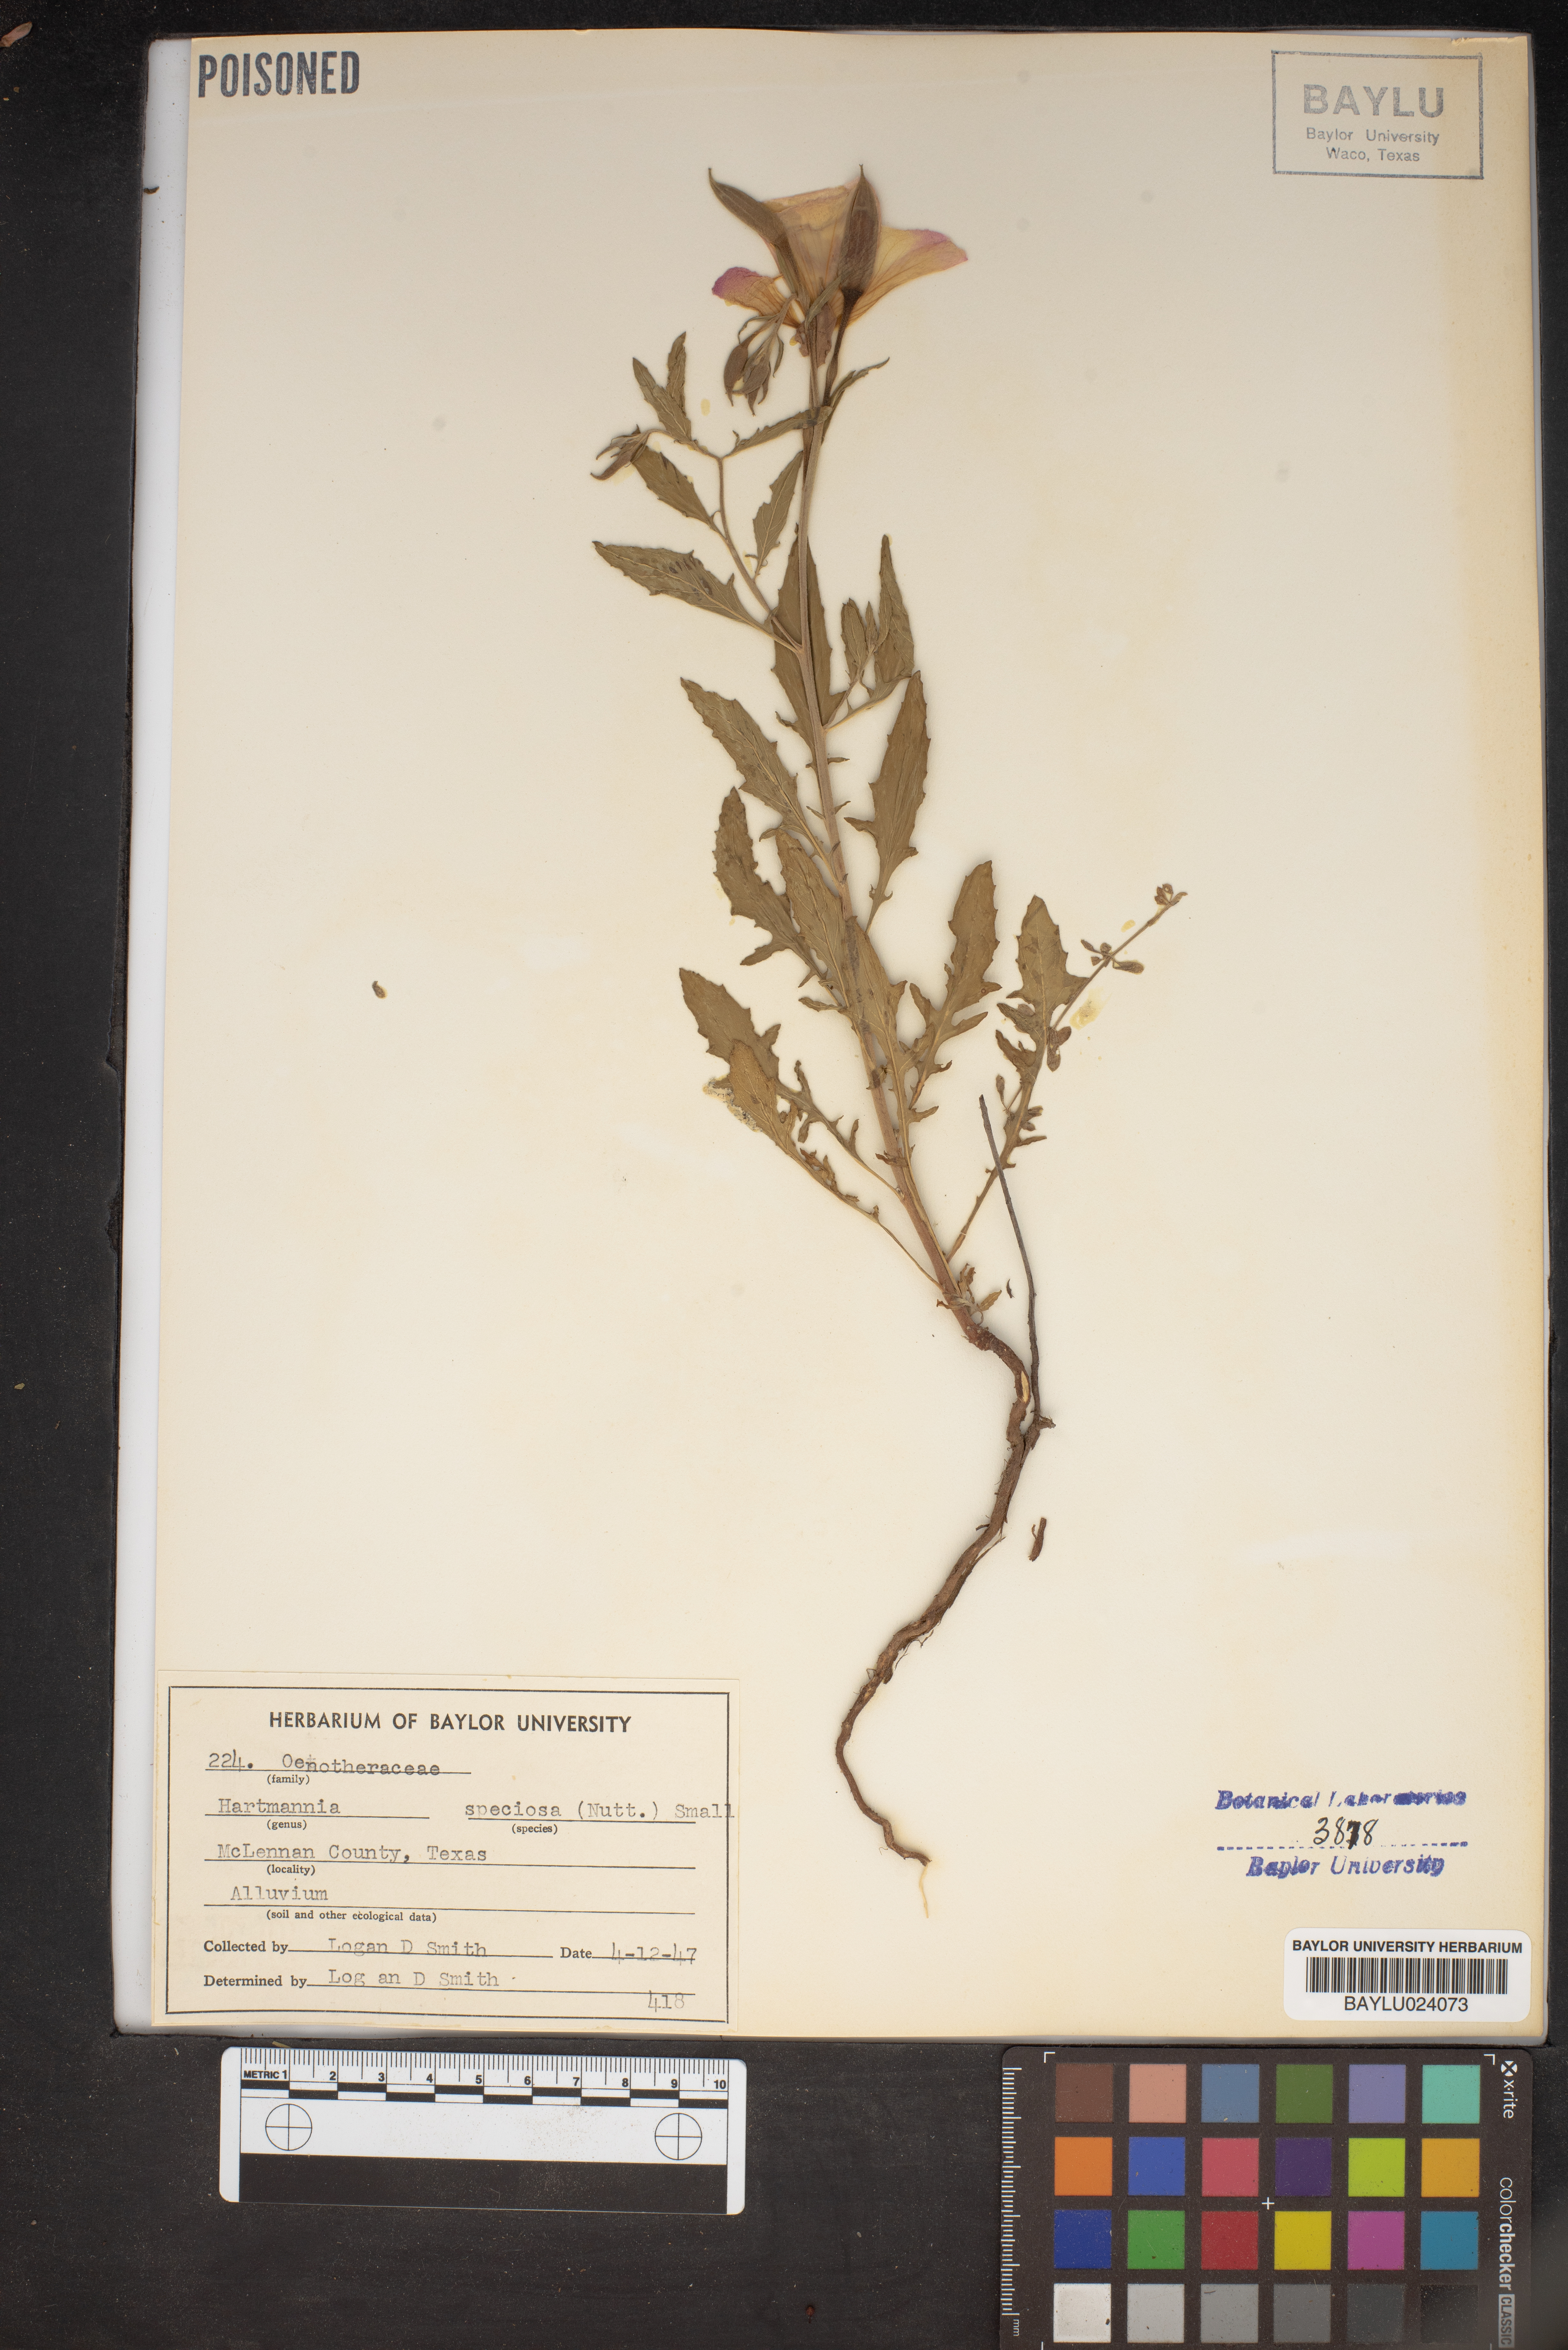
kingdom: Plantae
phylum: Tracheophyta
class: Magnoliopsida
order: Myrtales
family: Onagraceae
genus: Oenothera
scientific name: Oenothera speciosa
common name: White evening-primrose
